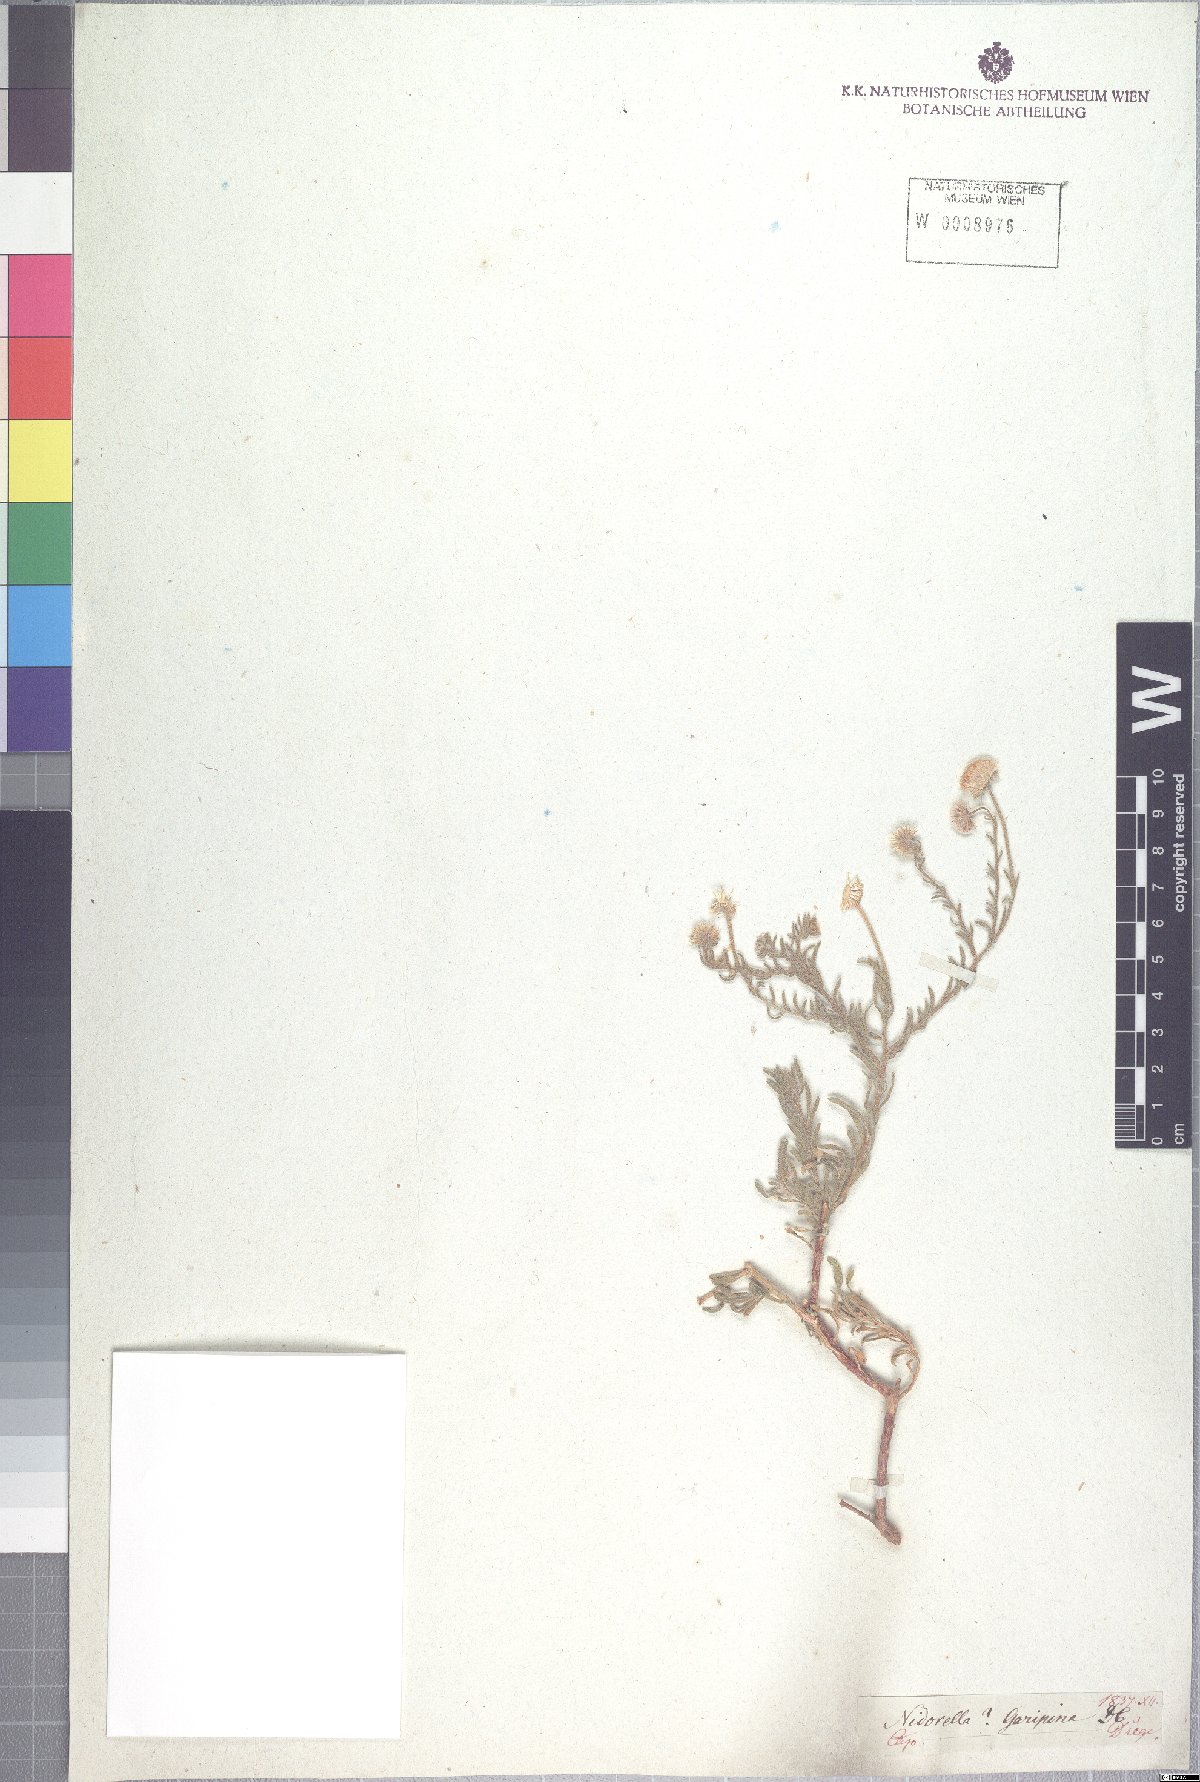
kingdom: Plantae
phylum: Tracheophyta
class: Magnoliopsida
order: Asterales
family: Asteraceae
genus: Nolletia
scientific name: Nolletia gariepina
